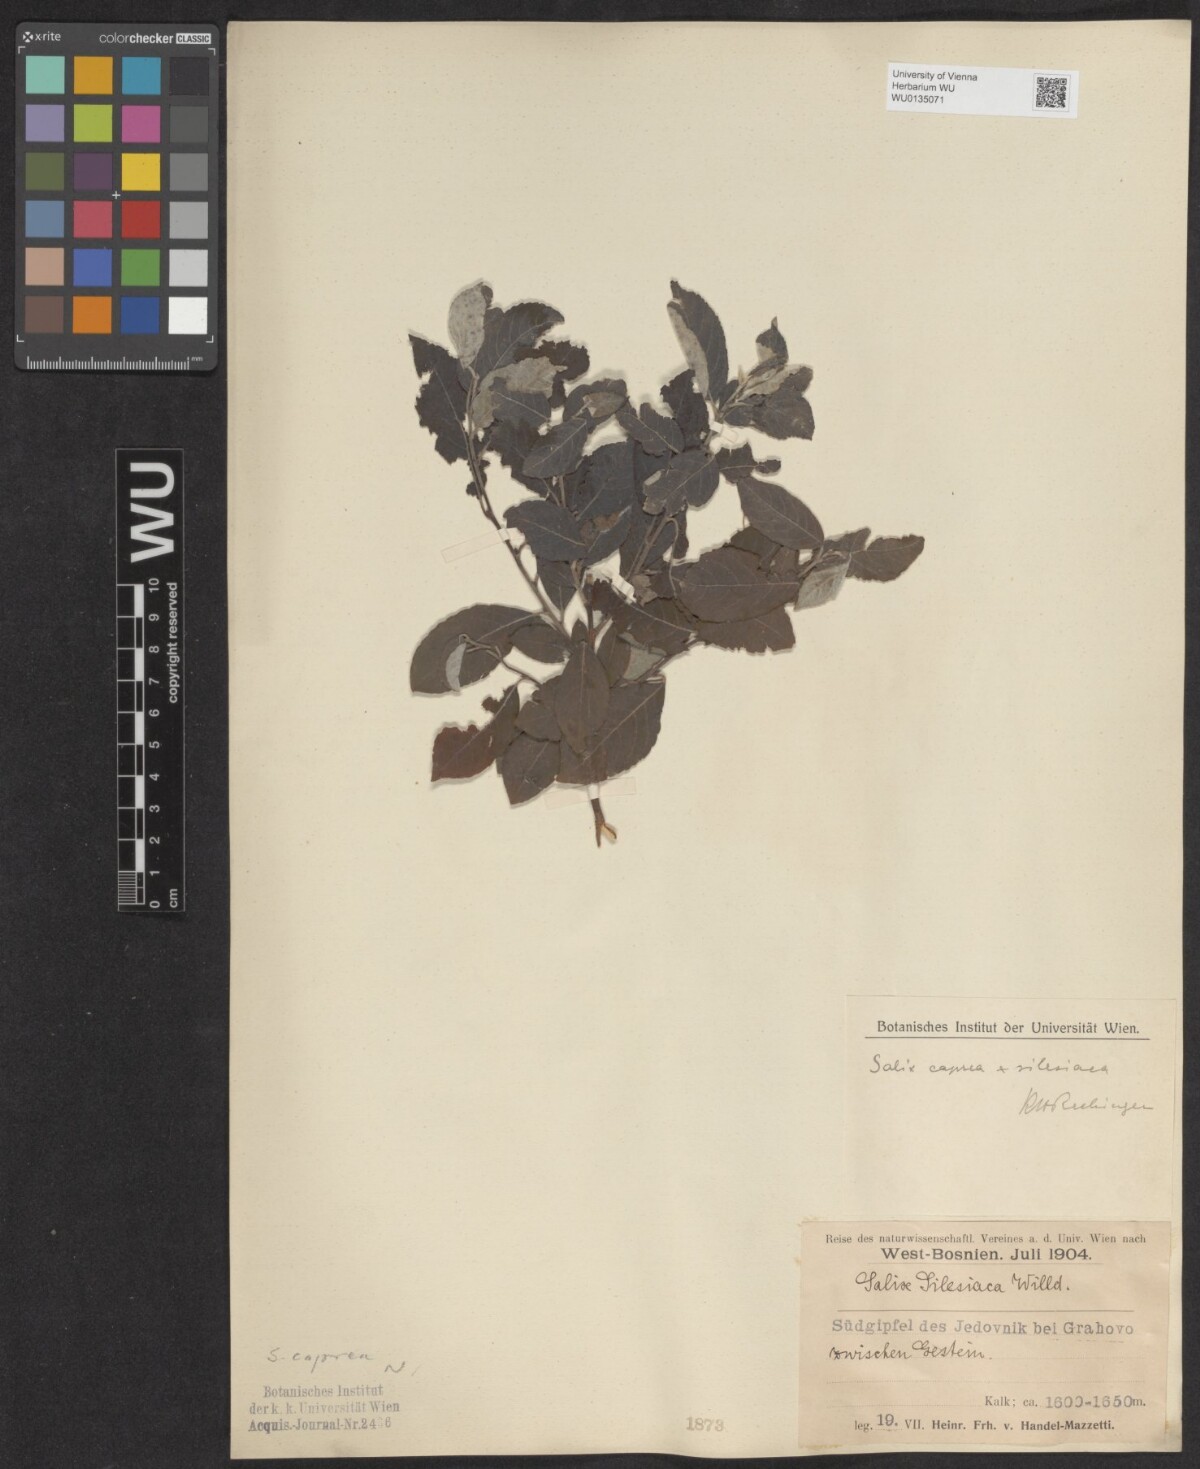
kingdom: Plantae
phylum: Tracheophyta
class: Magnoliopsida
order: Malpighiales
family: Salicaceae
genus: Salix
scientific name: Salix caprea
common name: Goat willow
